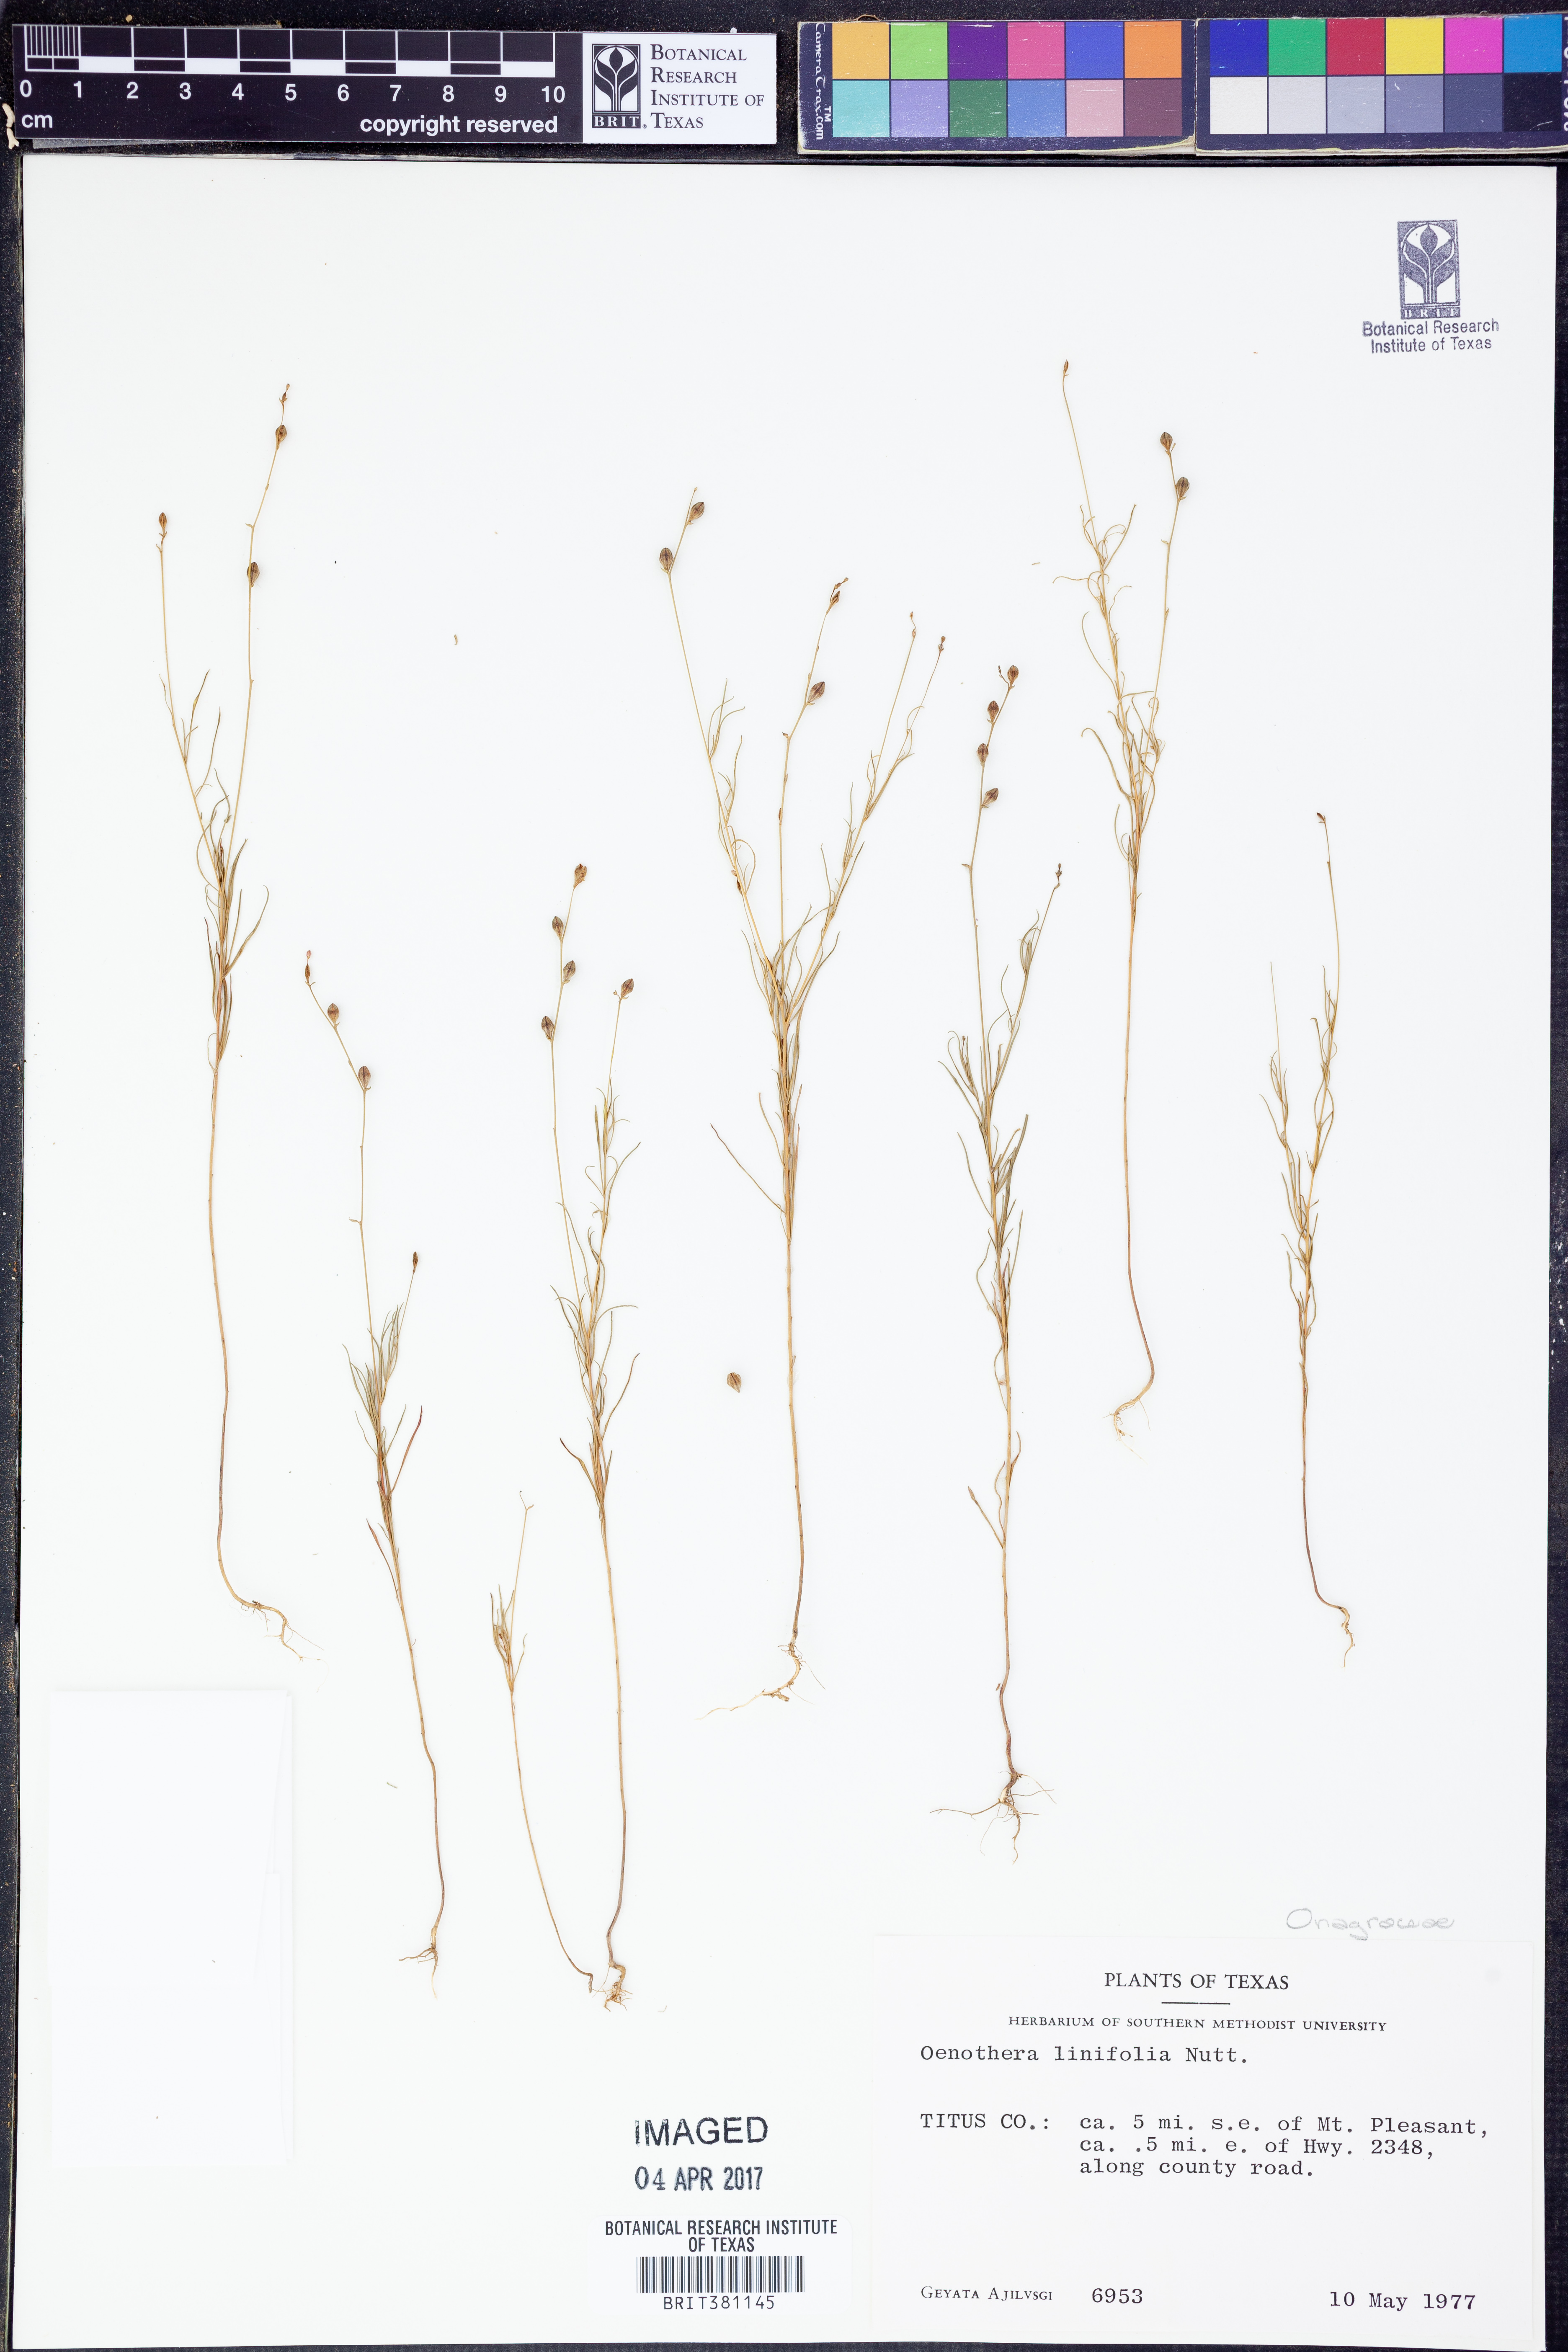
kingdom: Plantae
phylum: Tracheophyta
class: Magnoliopsida
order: Myrtales
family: Onagraceae
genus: Oenothera
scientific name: Oenothera linifolia
